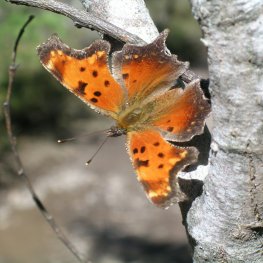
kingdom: Animalia
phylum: Arthropoda
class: Insecta
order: Lepidoptera
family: Nymphalidae
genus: Polygonia
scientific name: Polygonia progne
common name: Gray Comma
